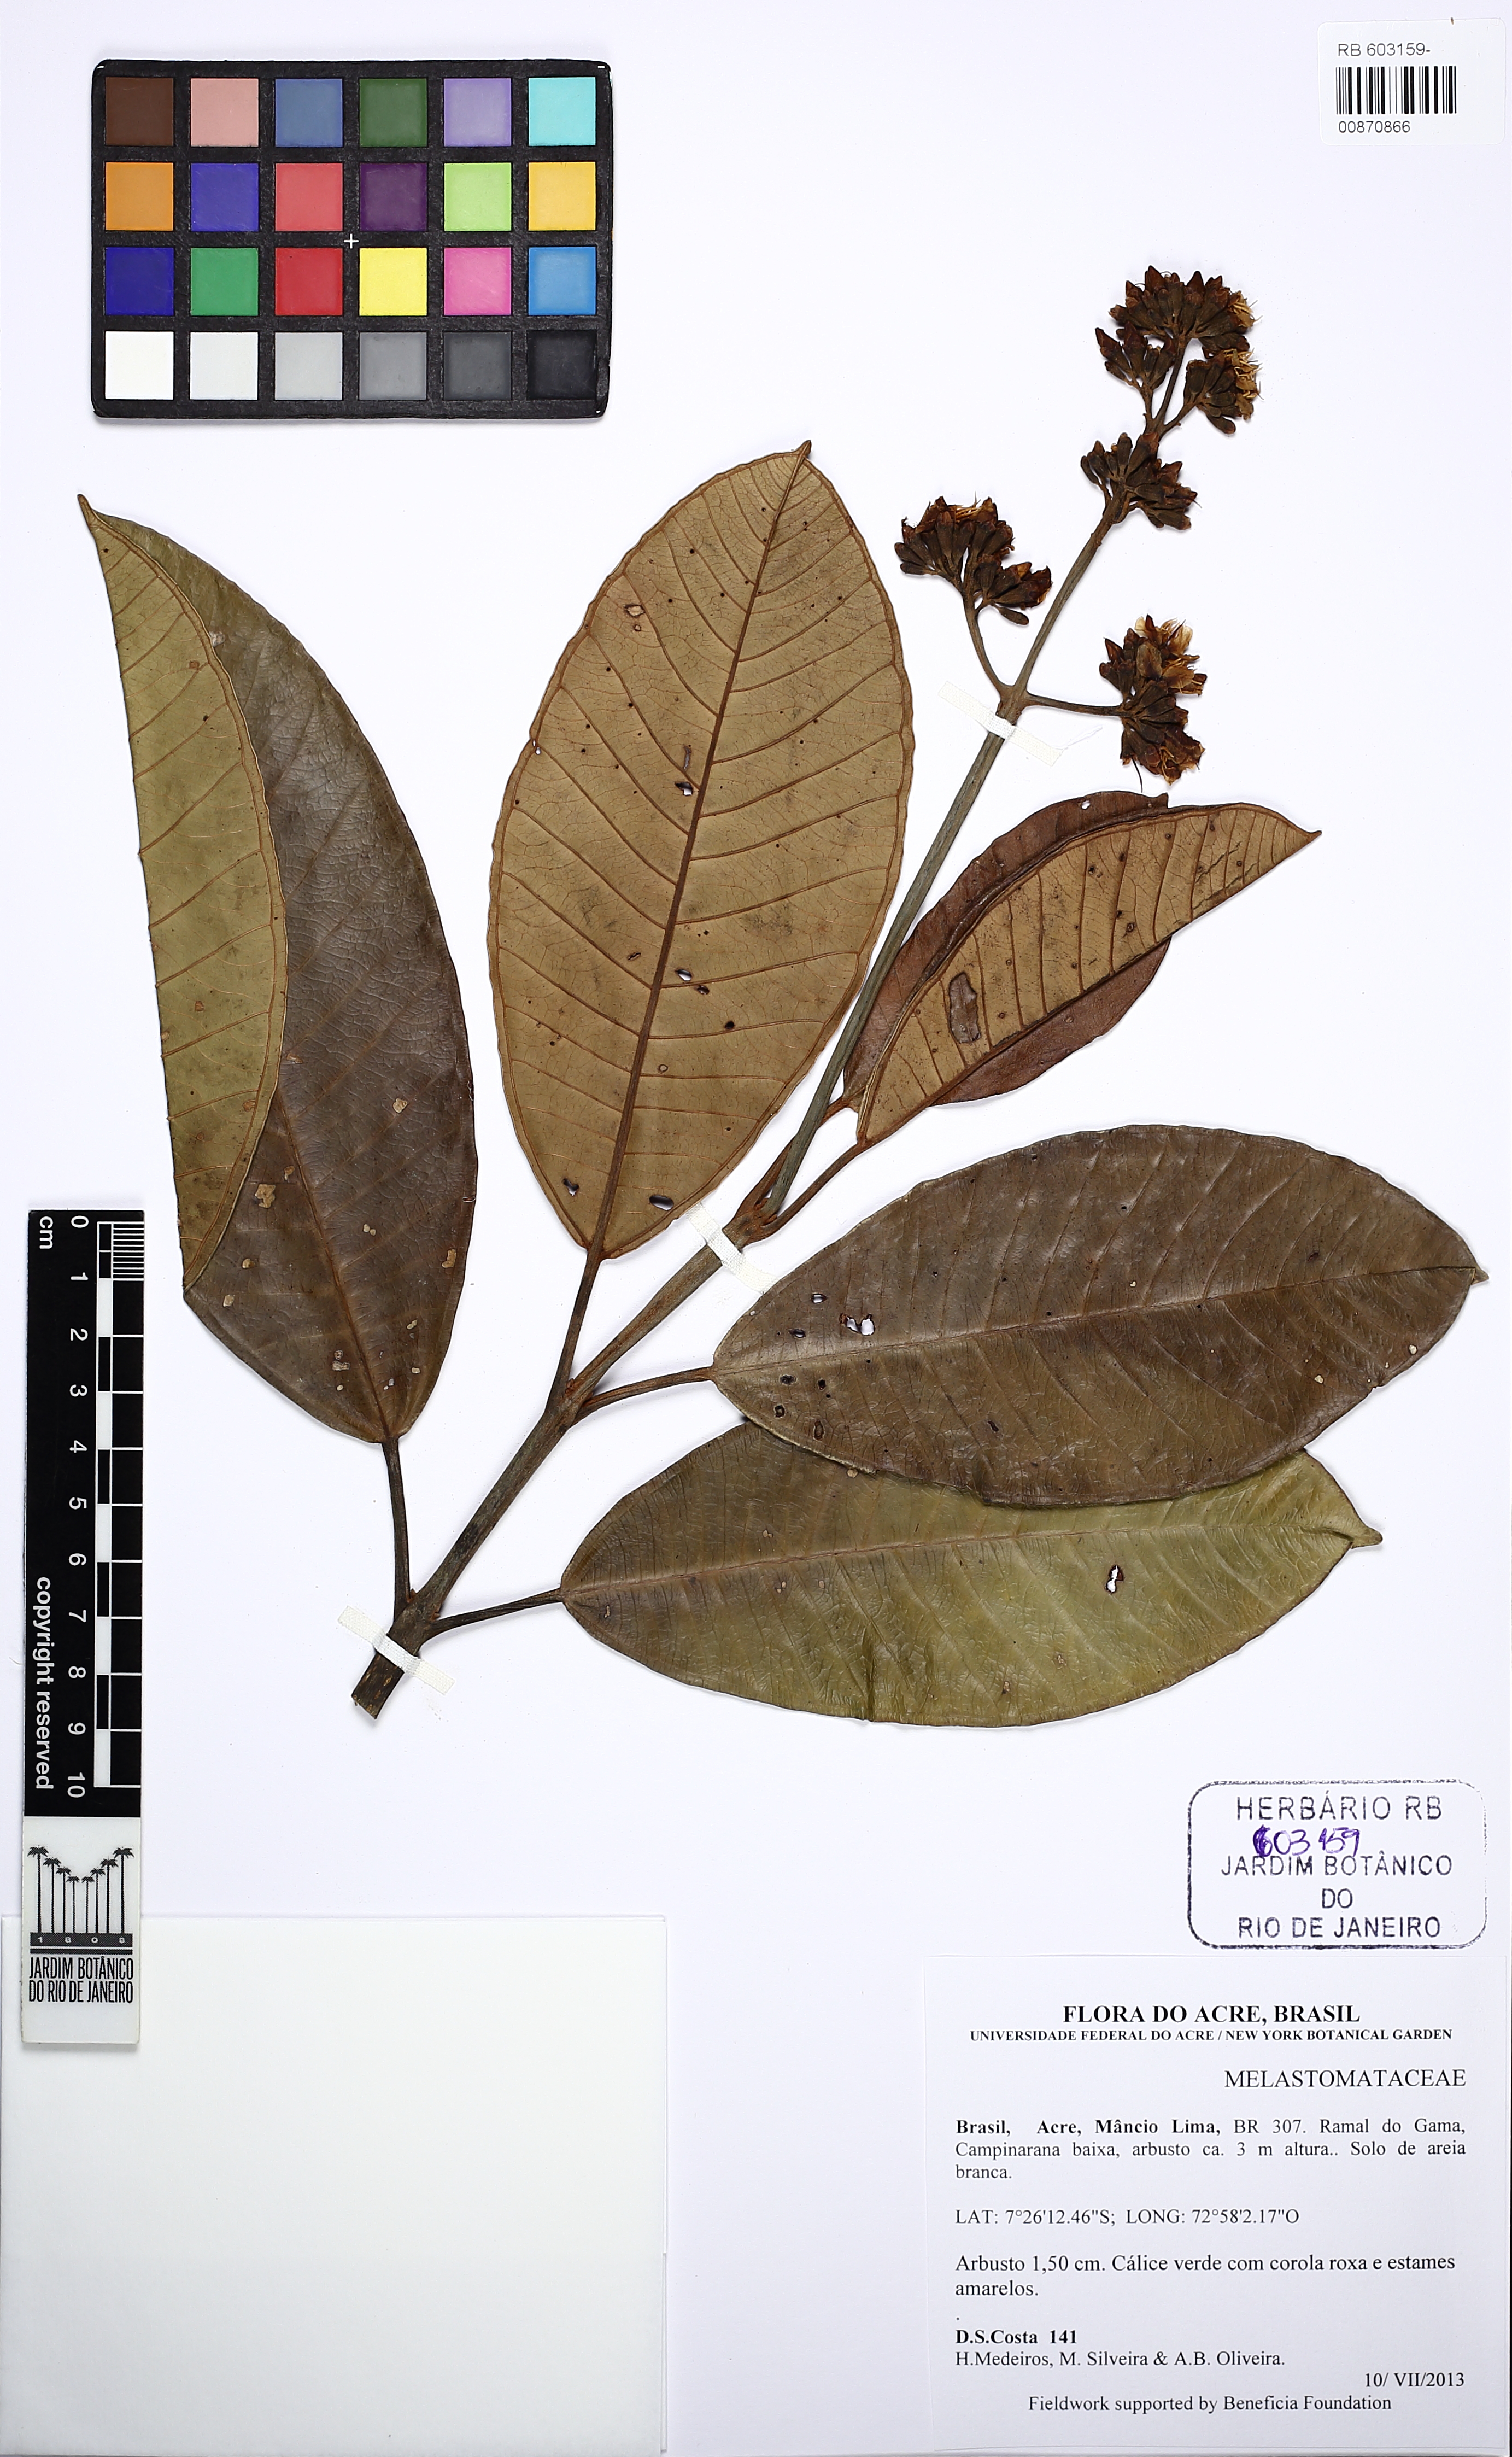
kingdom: Plantae
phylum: Tracheophyta
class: Magnoliopsida
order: Myrtales
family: Melastomataceae
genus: Graffenrieda
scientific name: Graffenrieda limbata
